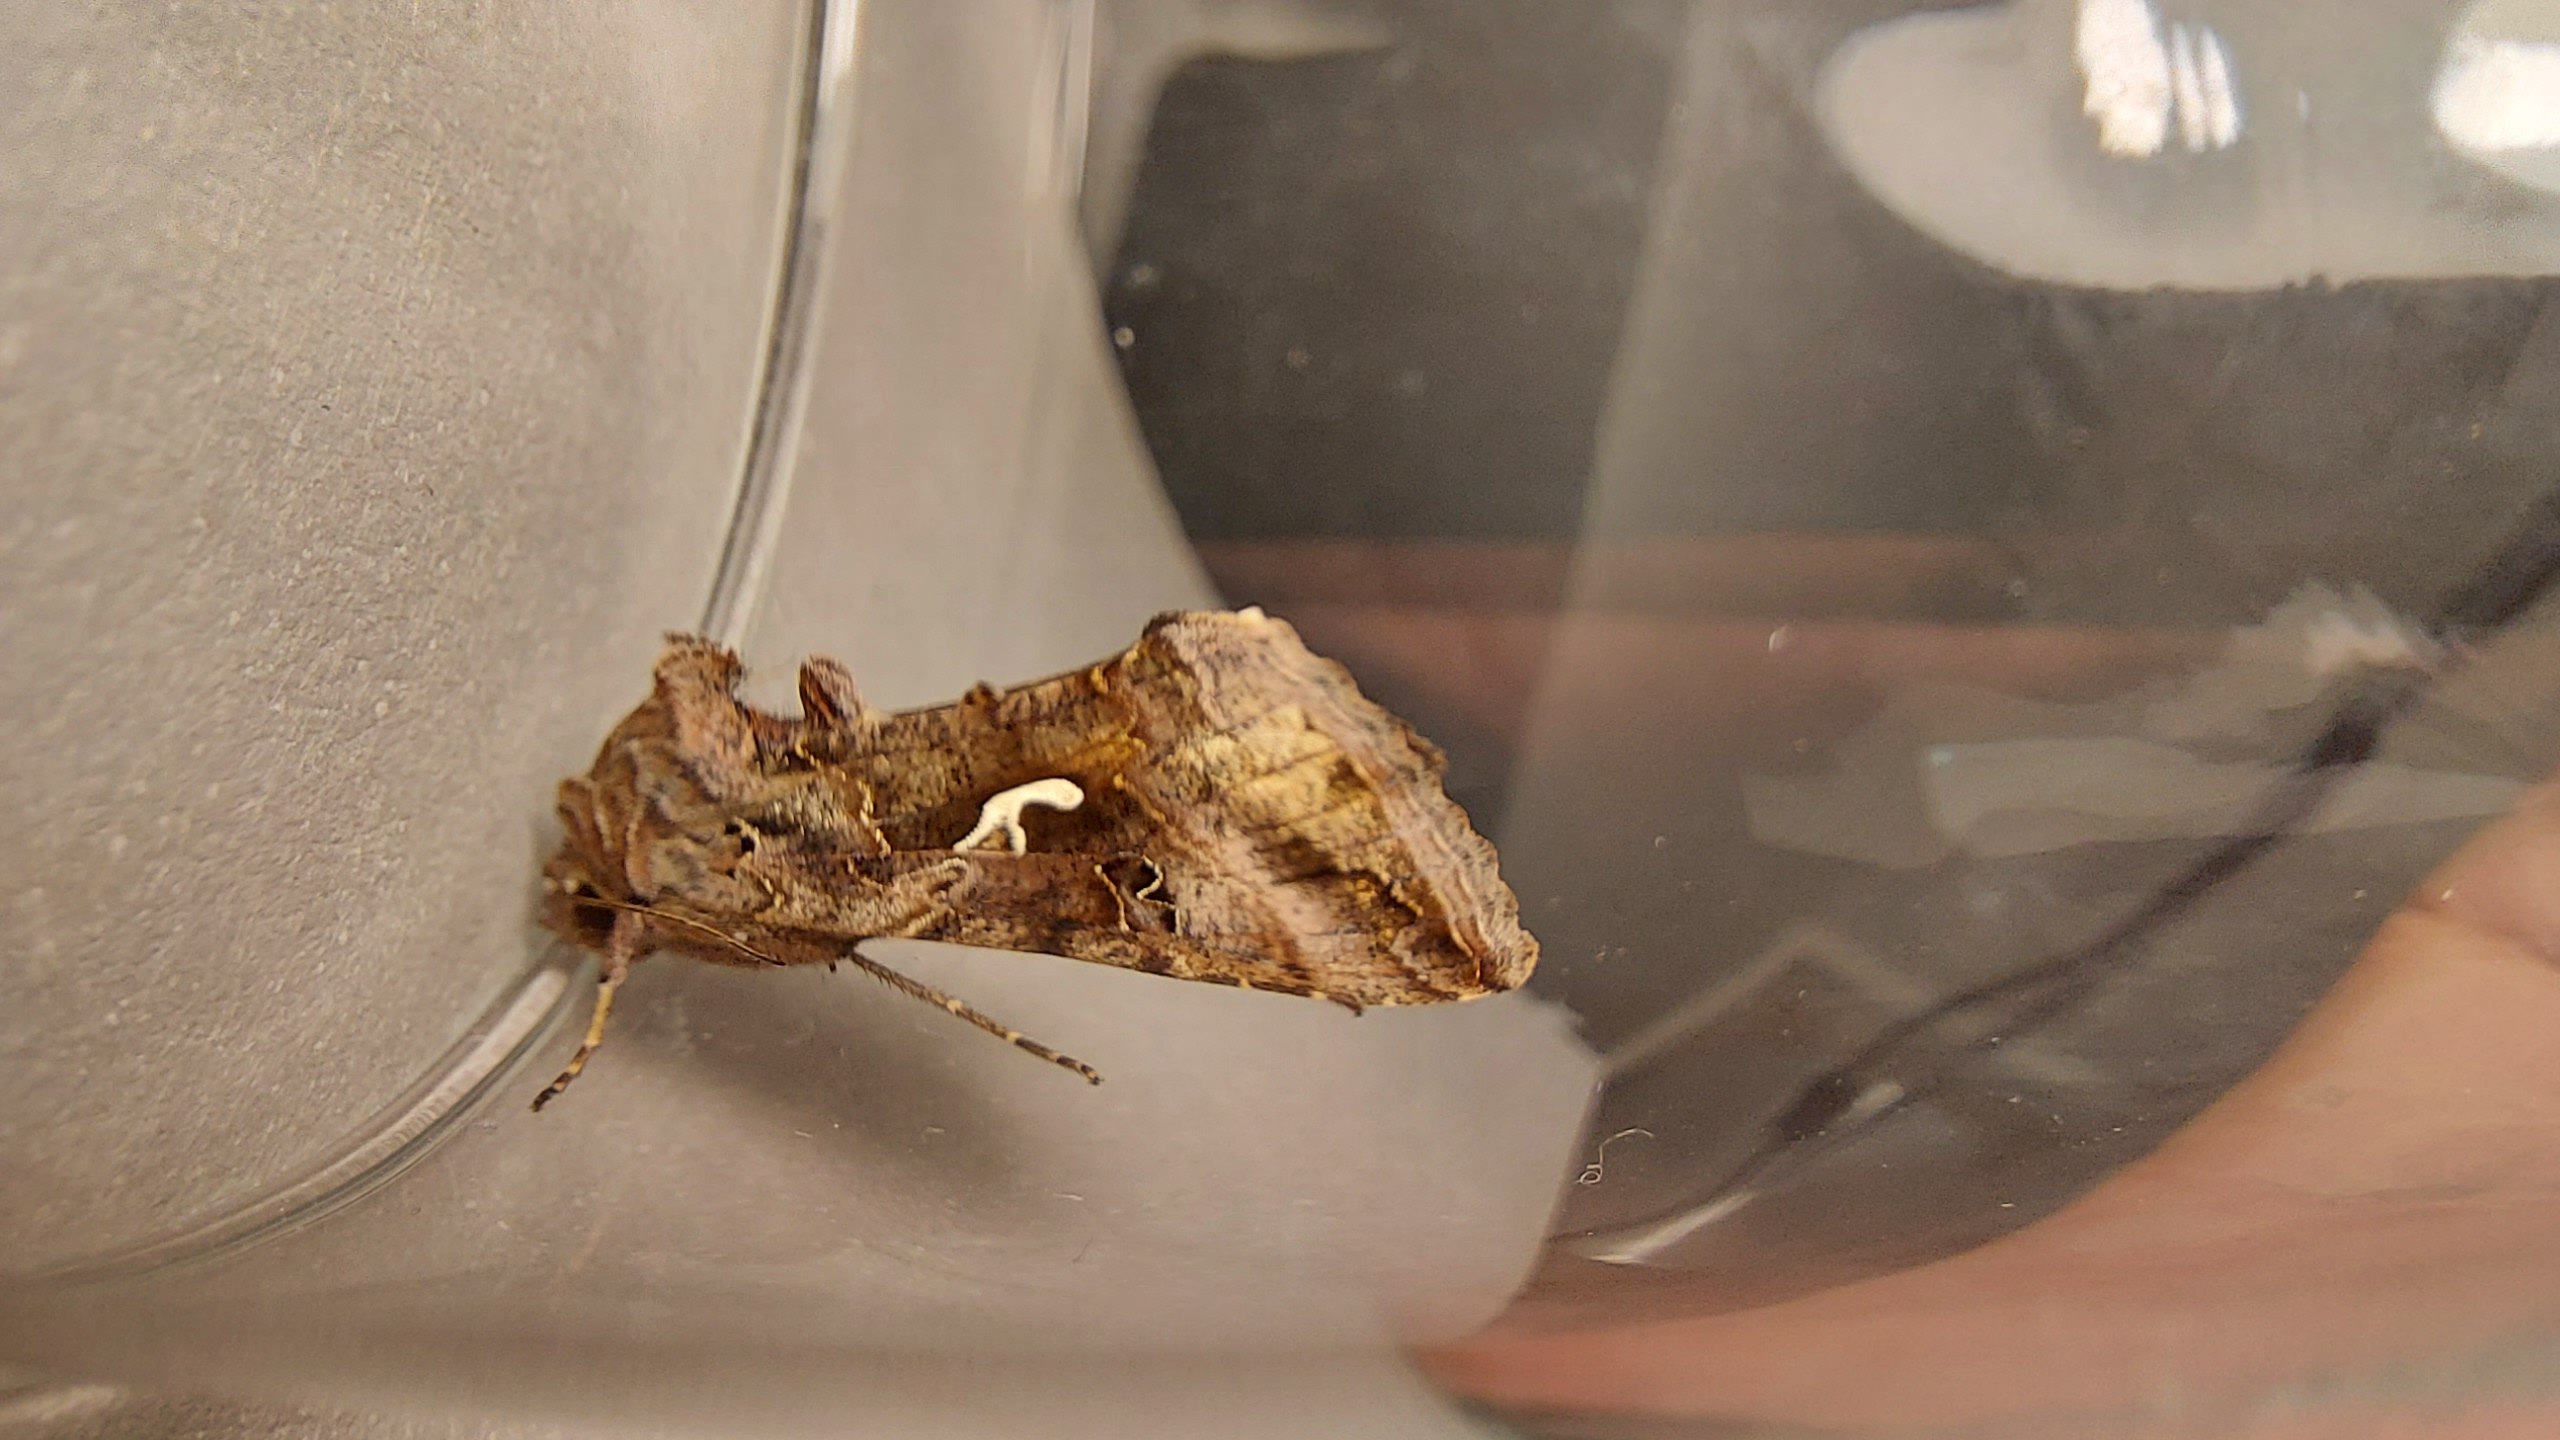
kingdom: Animalia
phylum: Arthropoda
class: Insecta
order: Lepidoptera
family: Noctuidae
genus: Autographa
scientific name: Autographa gamma
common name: Gammaugle
